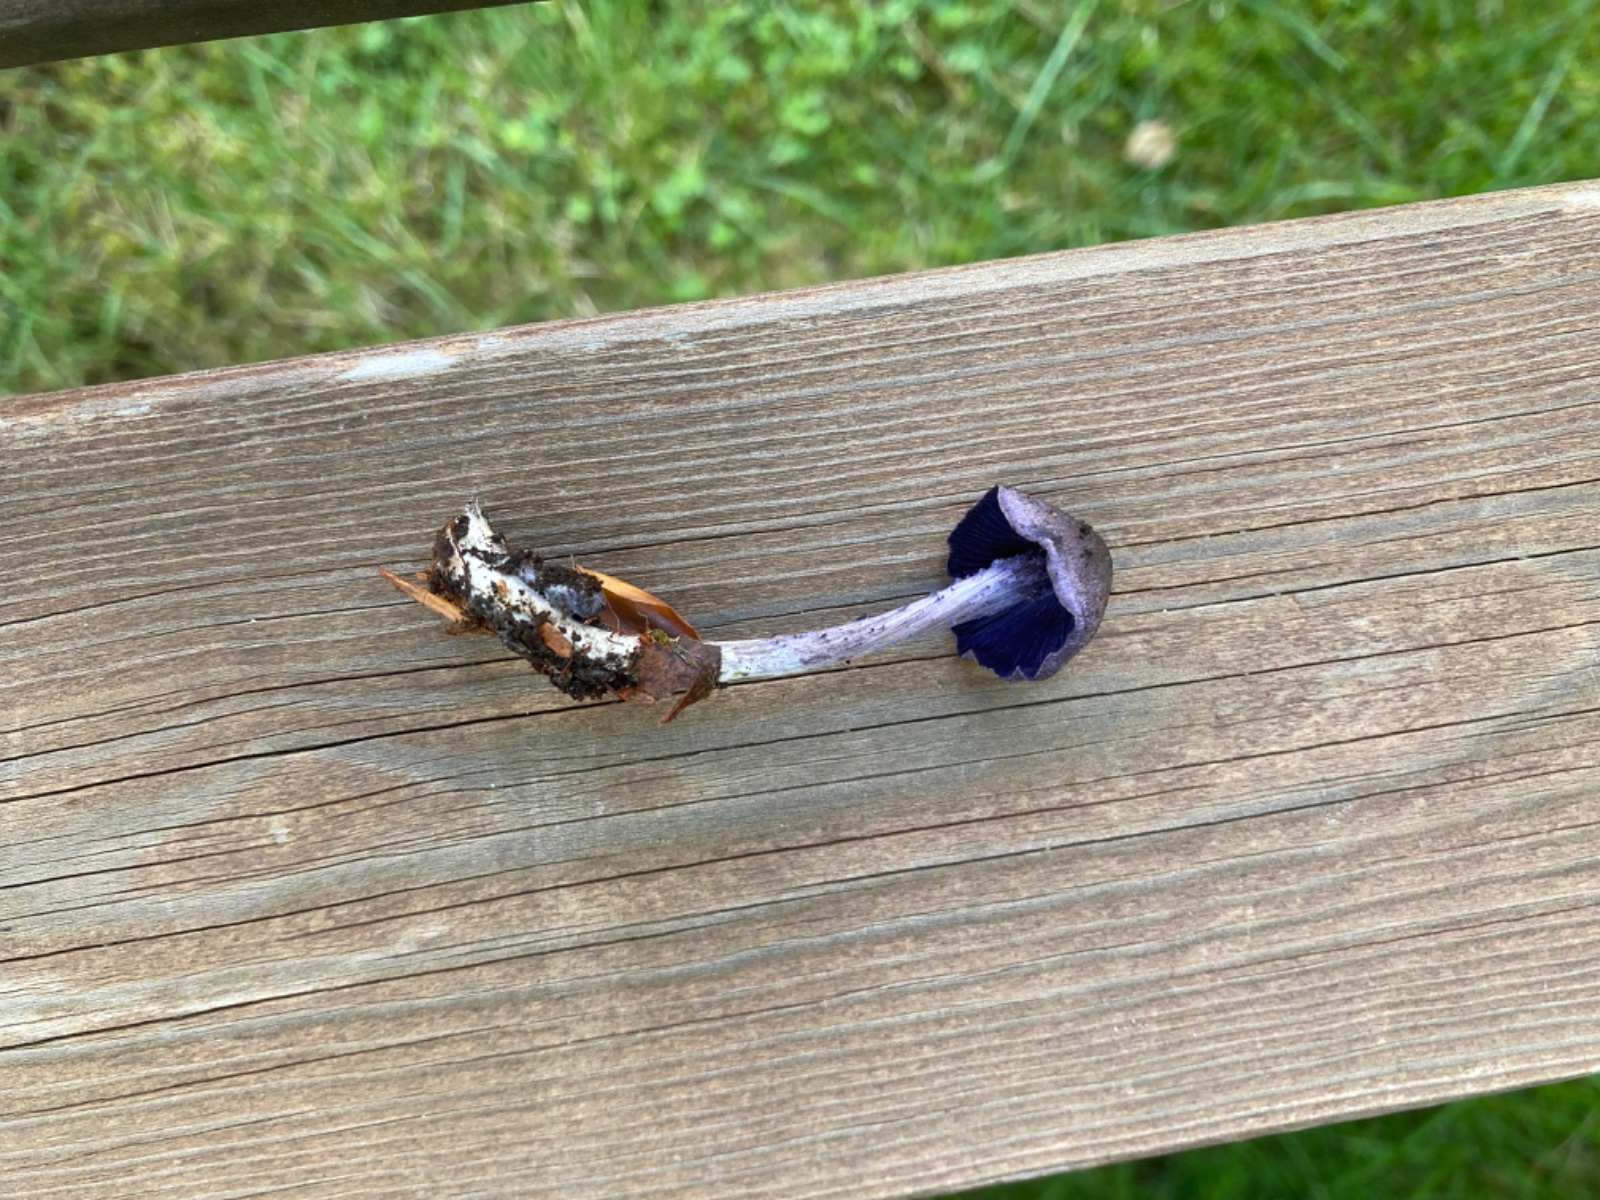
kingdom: Fungi
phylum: Basidiomycota
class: Agaricomycetes
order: Agaricales
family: Entolomataceae
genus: Entoloma
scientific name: Entoloma euchroum
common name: smuk rødblad
